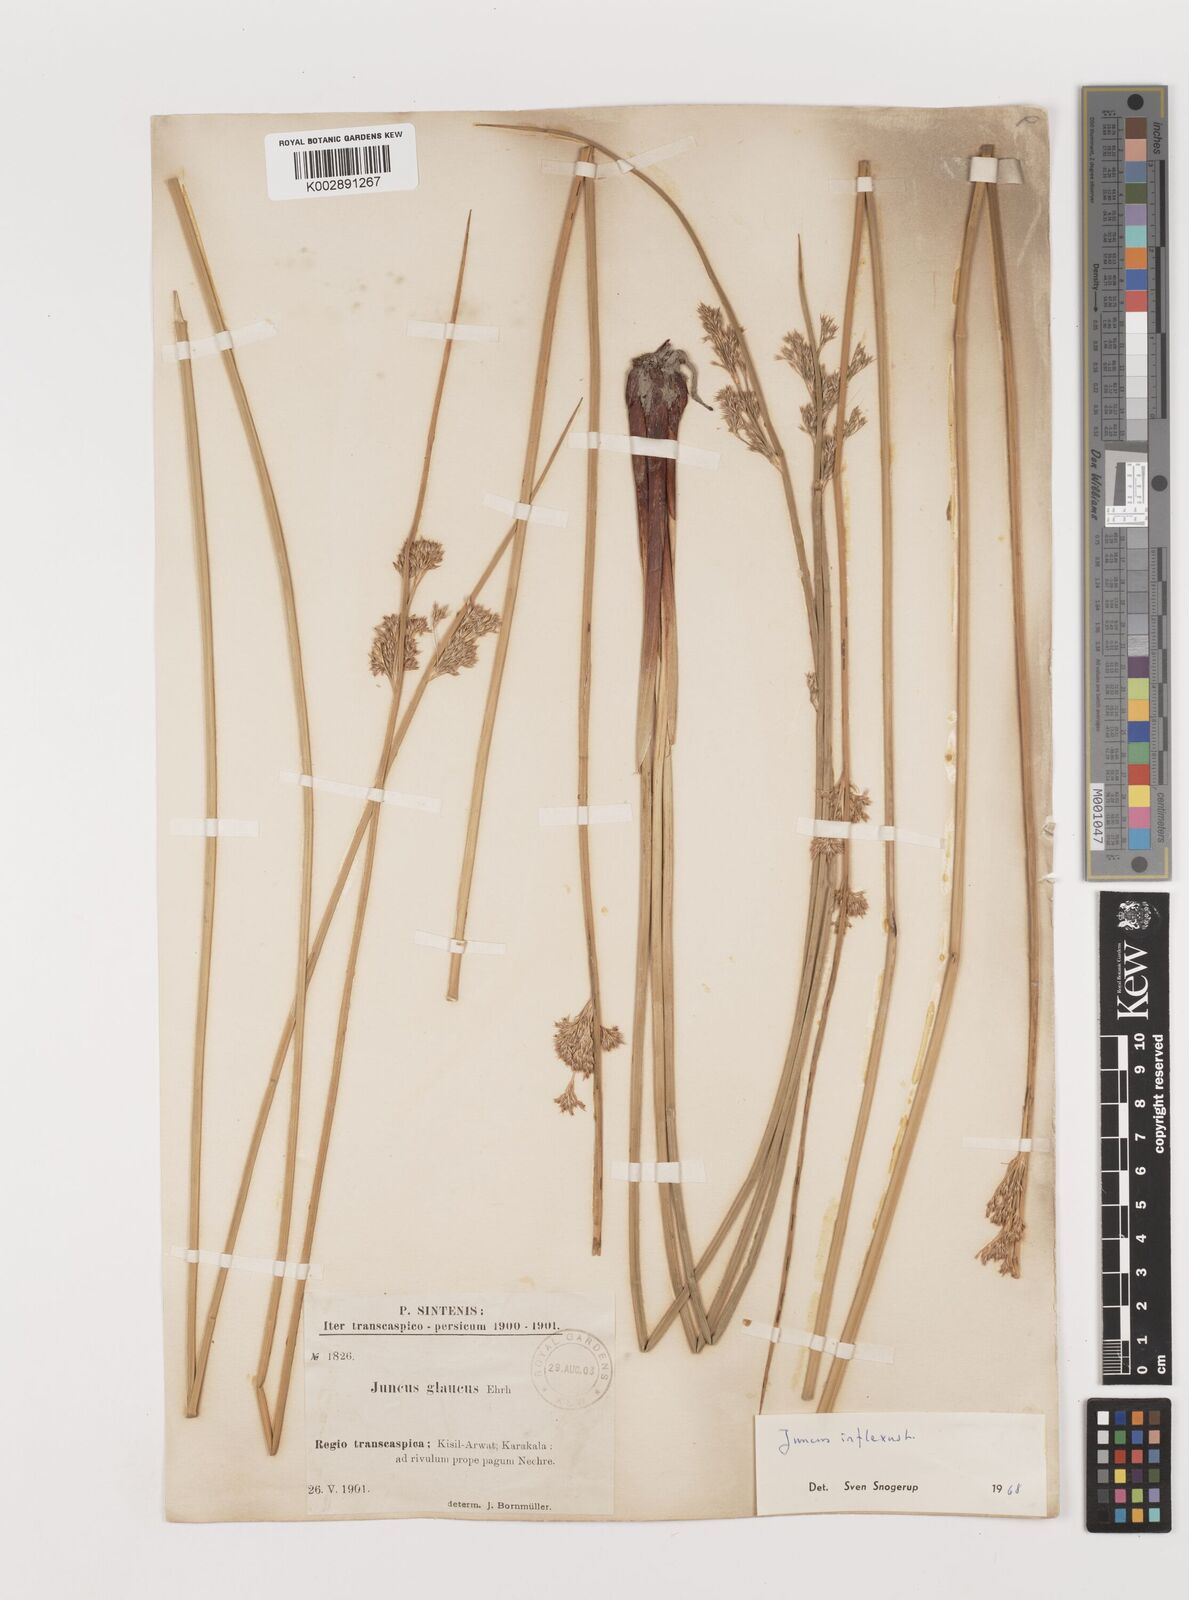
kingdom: Plantae
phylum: Tracheophyta
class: Liliopsida
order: Poales
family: Juncaceae
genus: Juncus
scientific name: Juncus inflexus
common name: Hard rush
